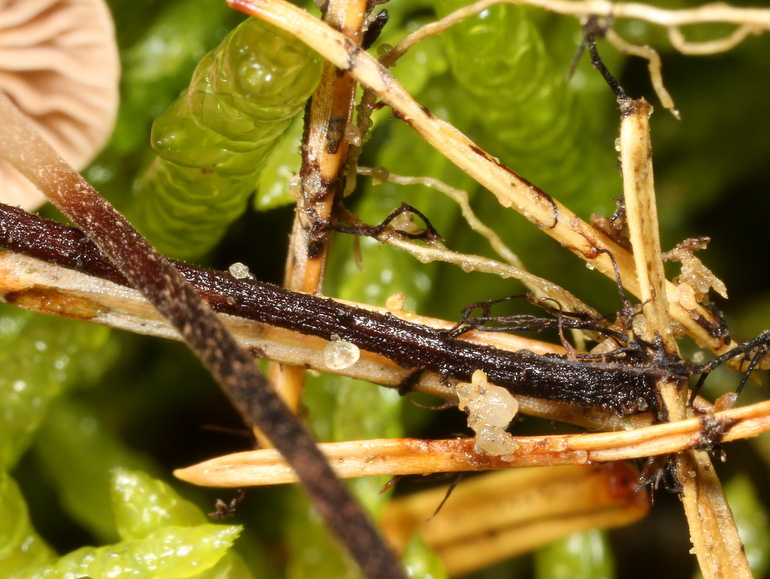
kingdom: Fungi
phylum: Basidiomycota
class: Agaricomycetes
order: Agaricales
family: Omphalotaceae
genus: Paragymnopus
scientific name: Paragymnopus perforans
